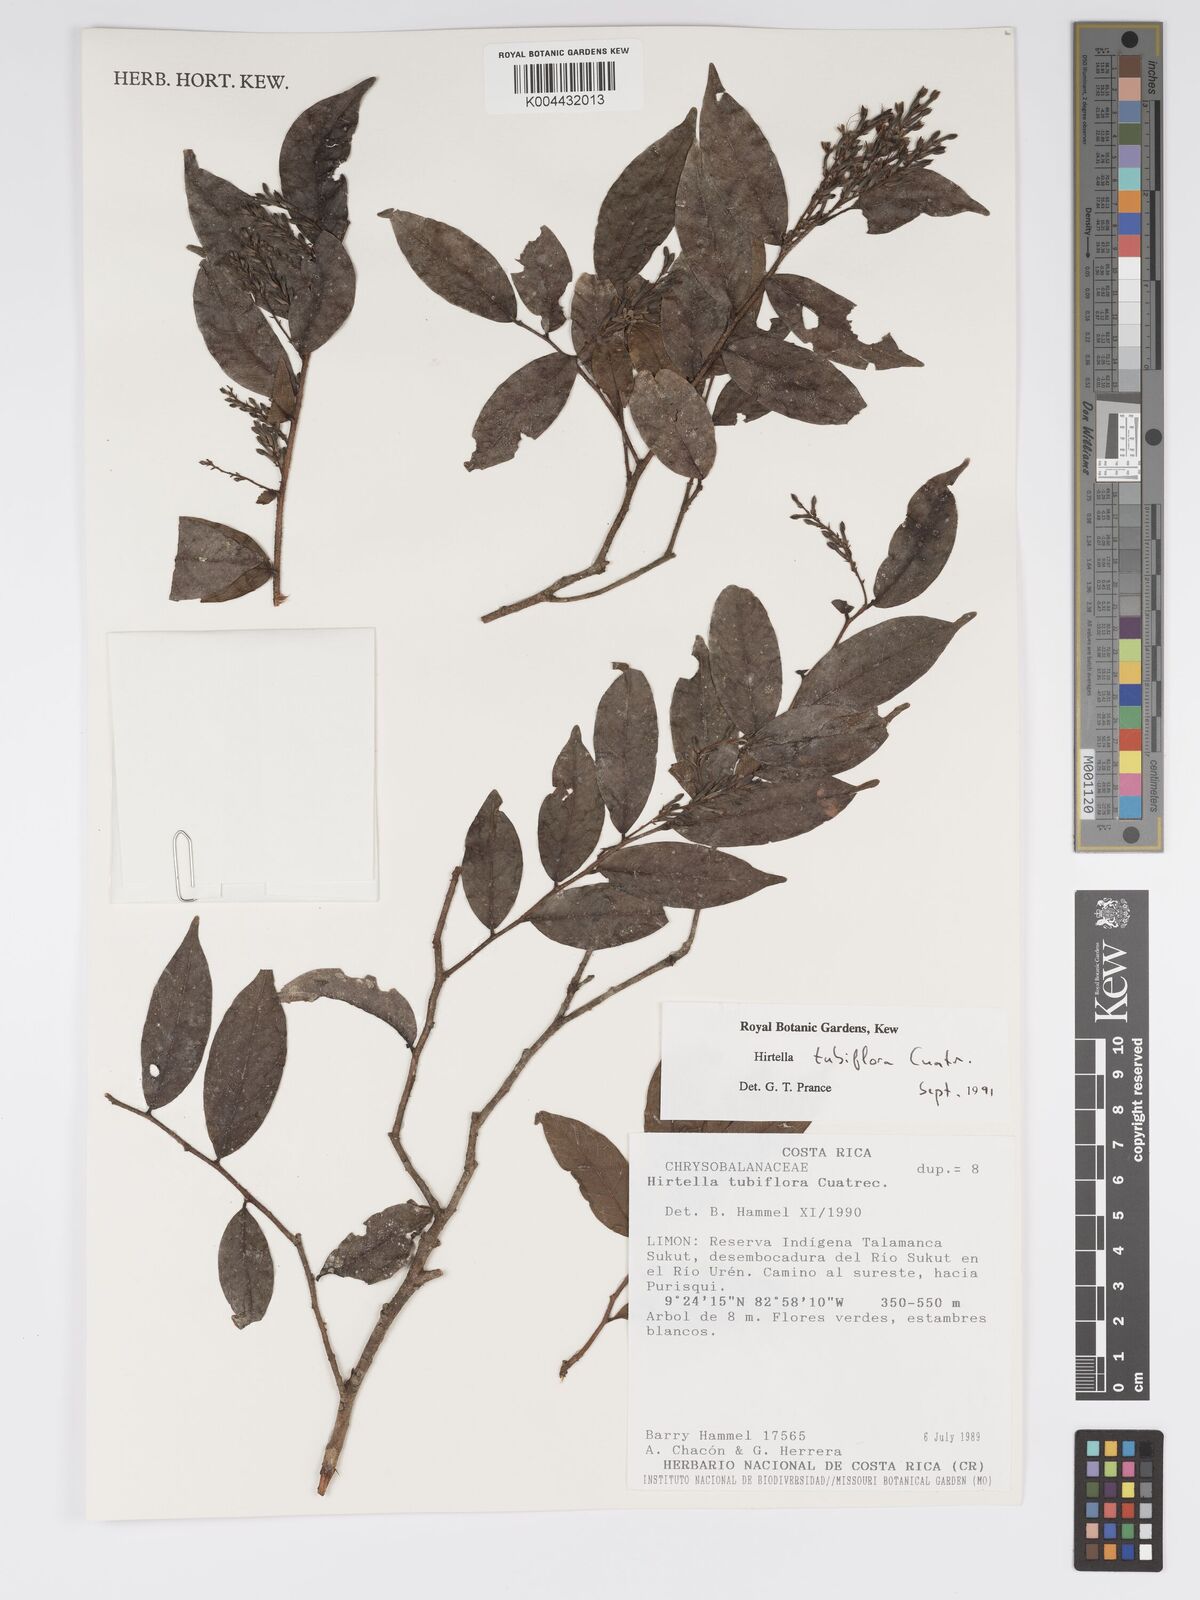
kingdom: Plantae
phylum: Tracheophyta
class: Magnoliopsida
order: Malpighiales
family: Chrysobalanaceae
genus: Hirtella
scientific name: Hirtella tubiflora
